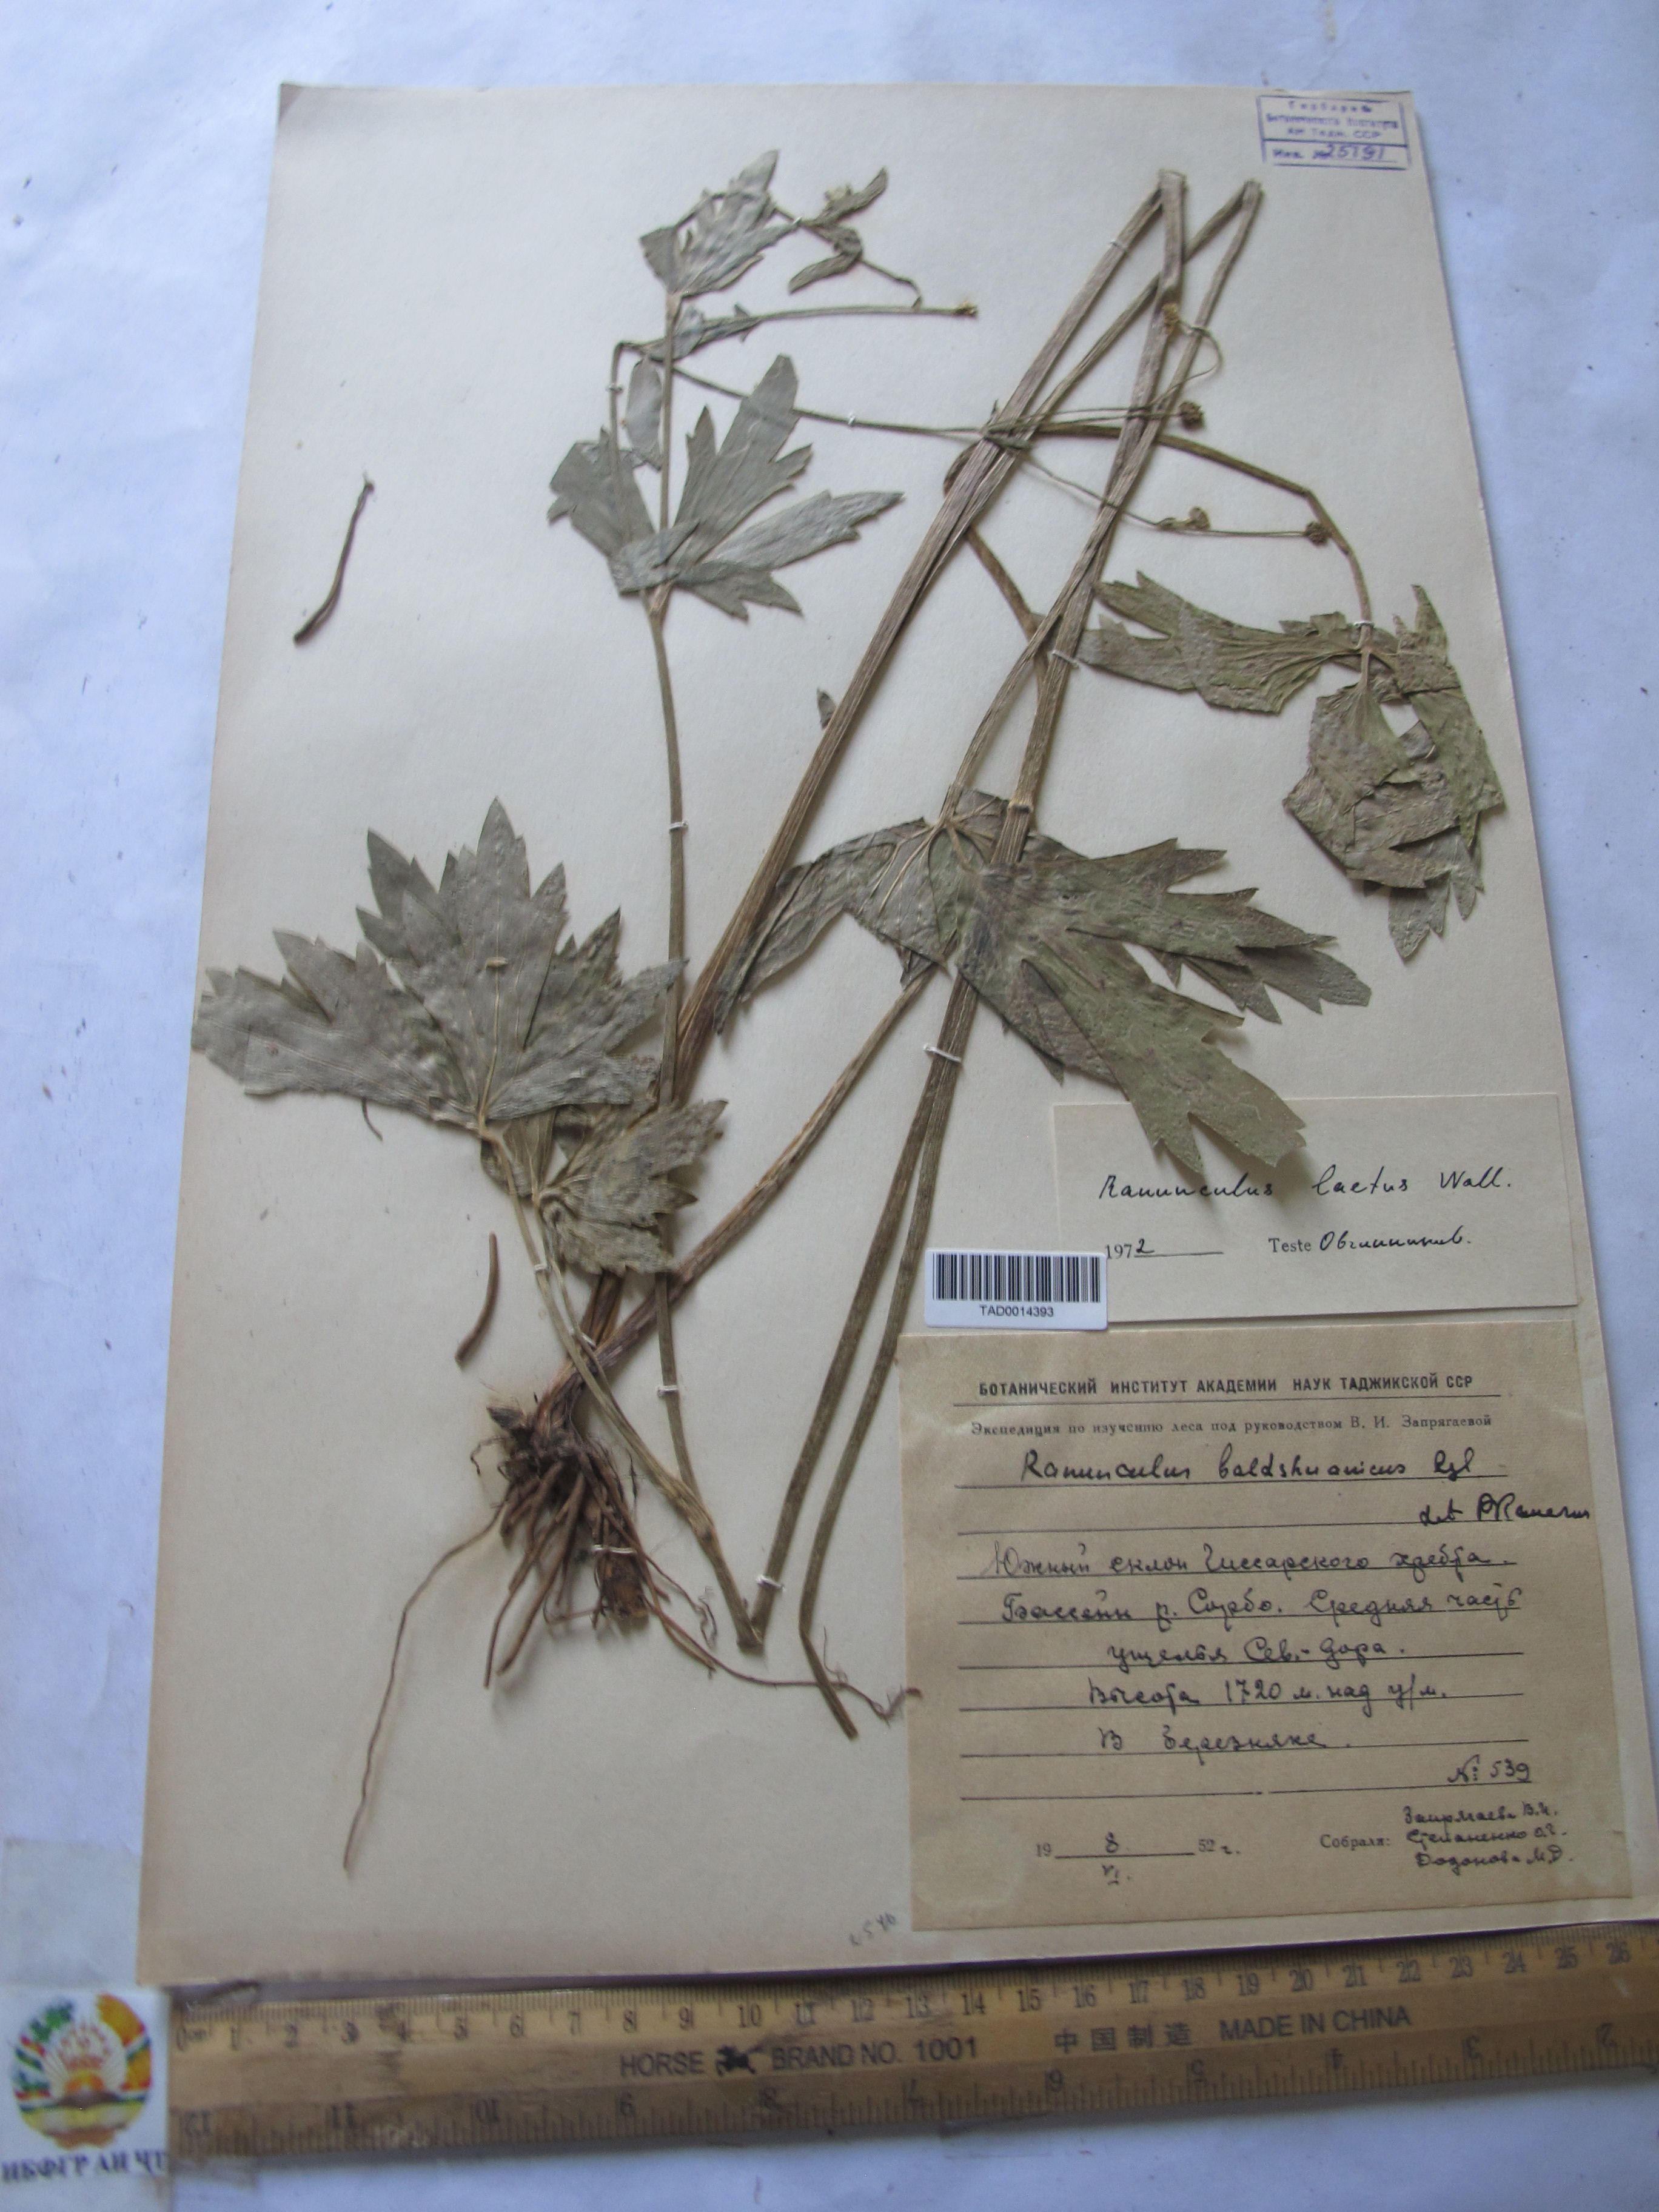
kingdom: Plantae
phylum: Tracheophyta
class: Magnoliopsida
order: Ranunculales
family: Ranunculaceae
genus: Ranunculus
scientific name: Ranunculus distans
